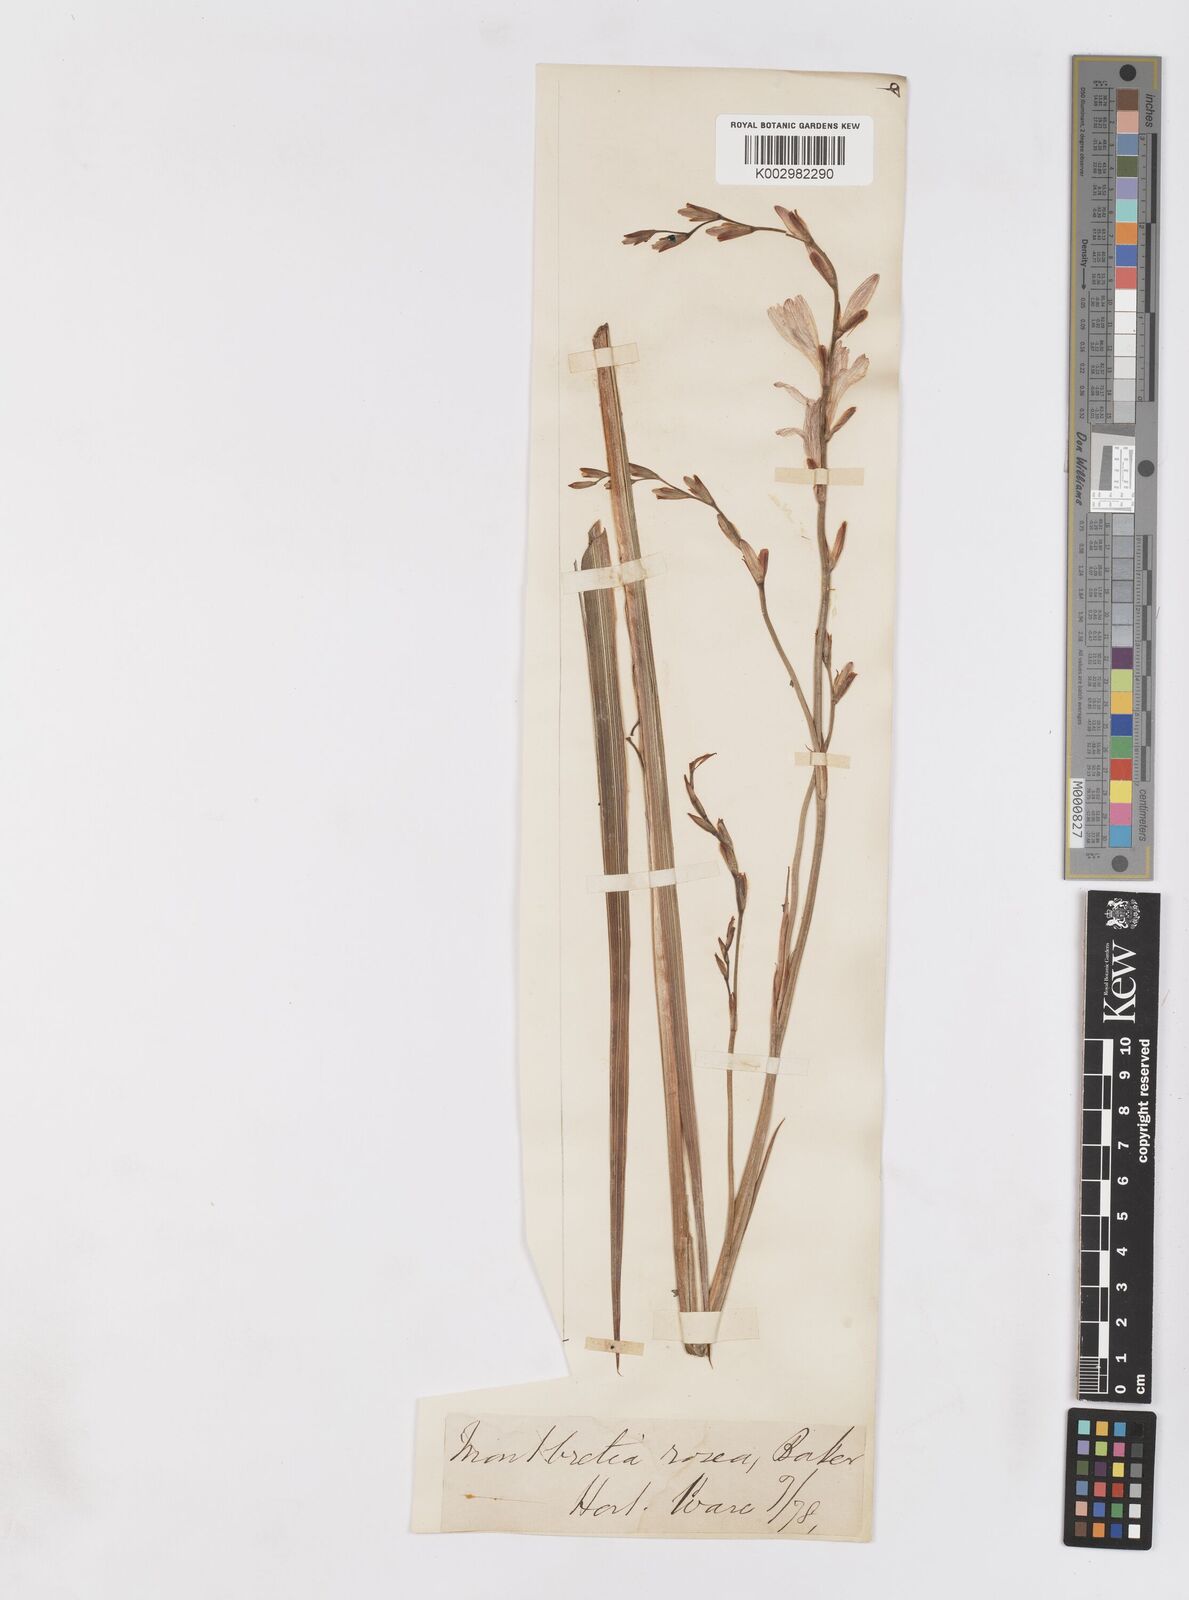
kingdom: Plantae
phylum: Tracheophyta
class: Liliopsida
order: Asparagales
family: Iridaceae
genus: Tritonia
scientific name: Tritonia disticha
